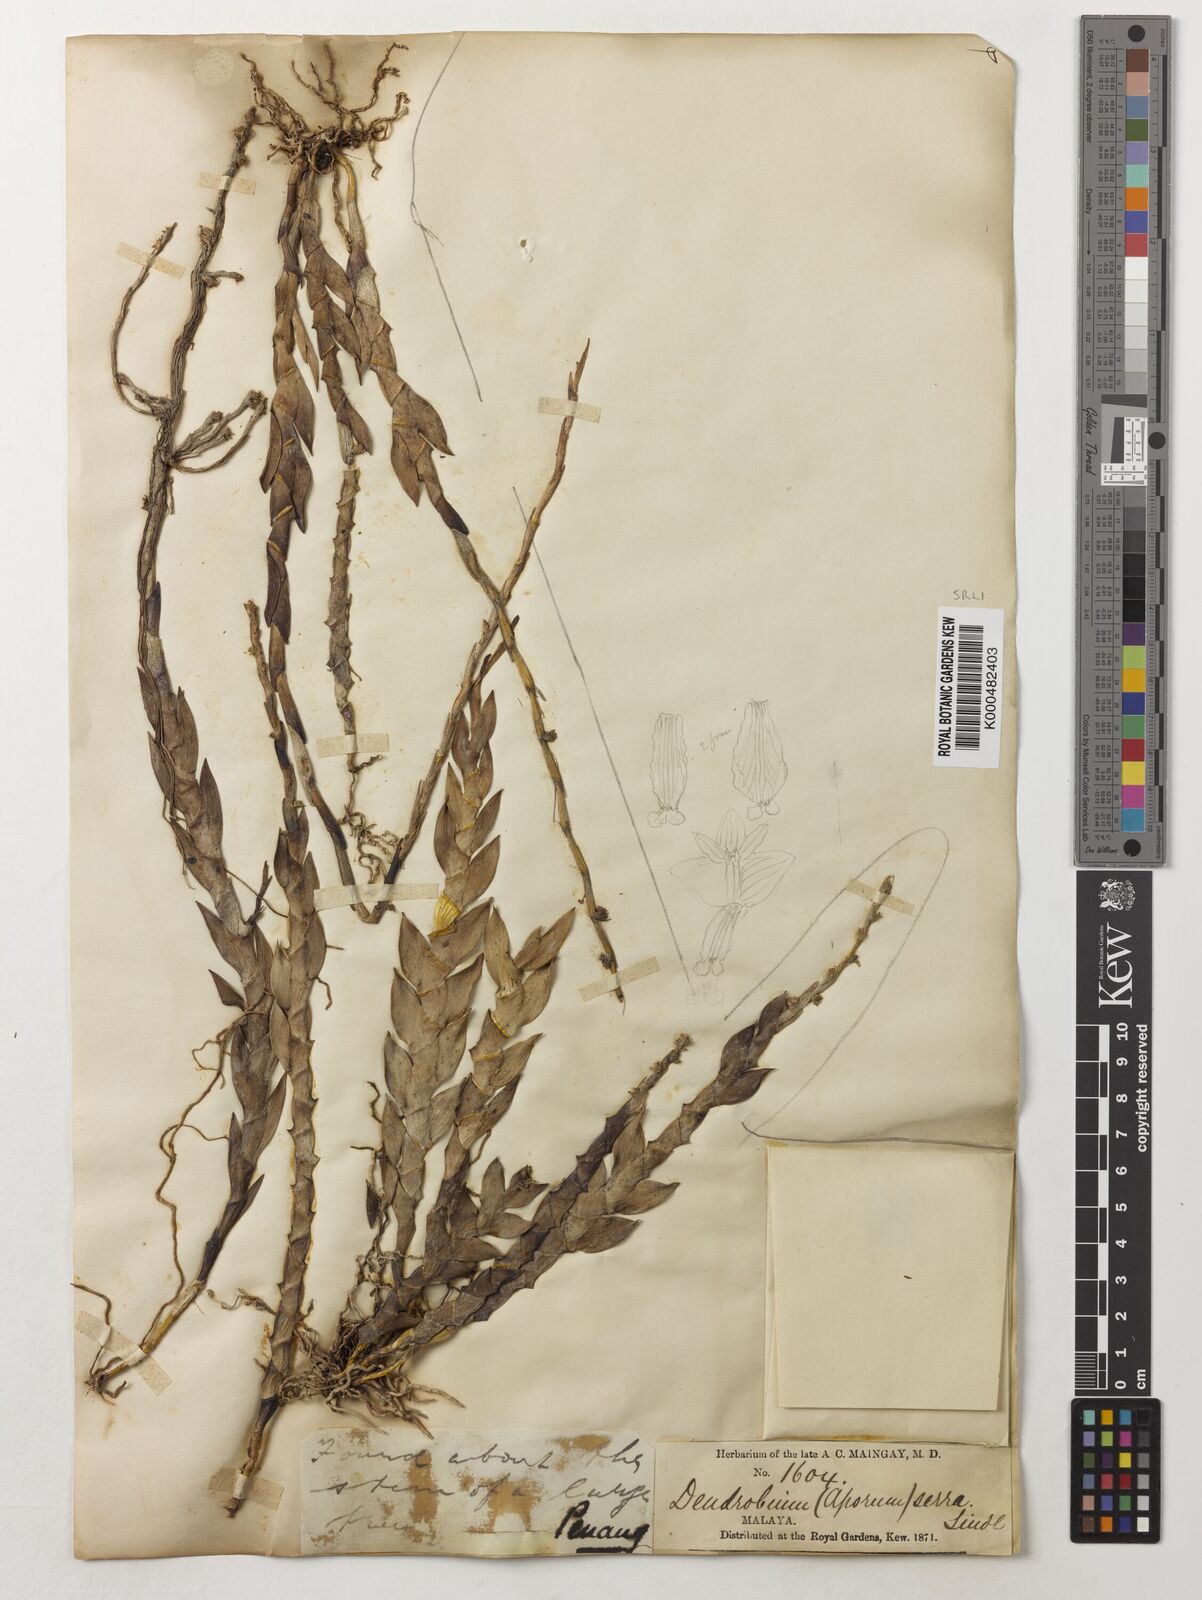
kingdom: Plantae
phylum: Tracheophyta
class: Liliopsida
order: Asparagales
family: Orchidaceae
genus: Dendrobium
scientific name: Dendrobium aloifolium
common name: Aloe-like dendrobium
